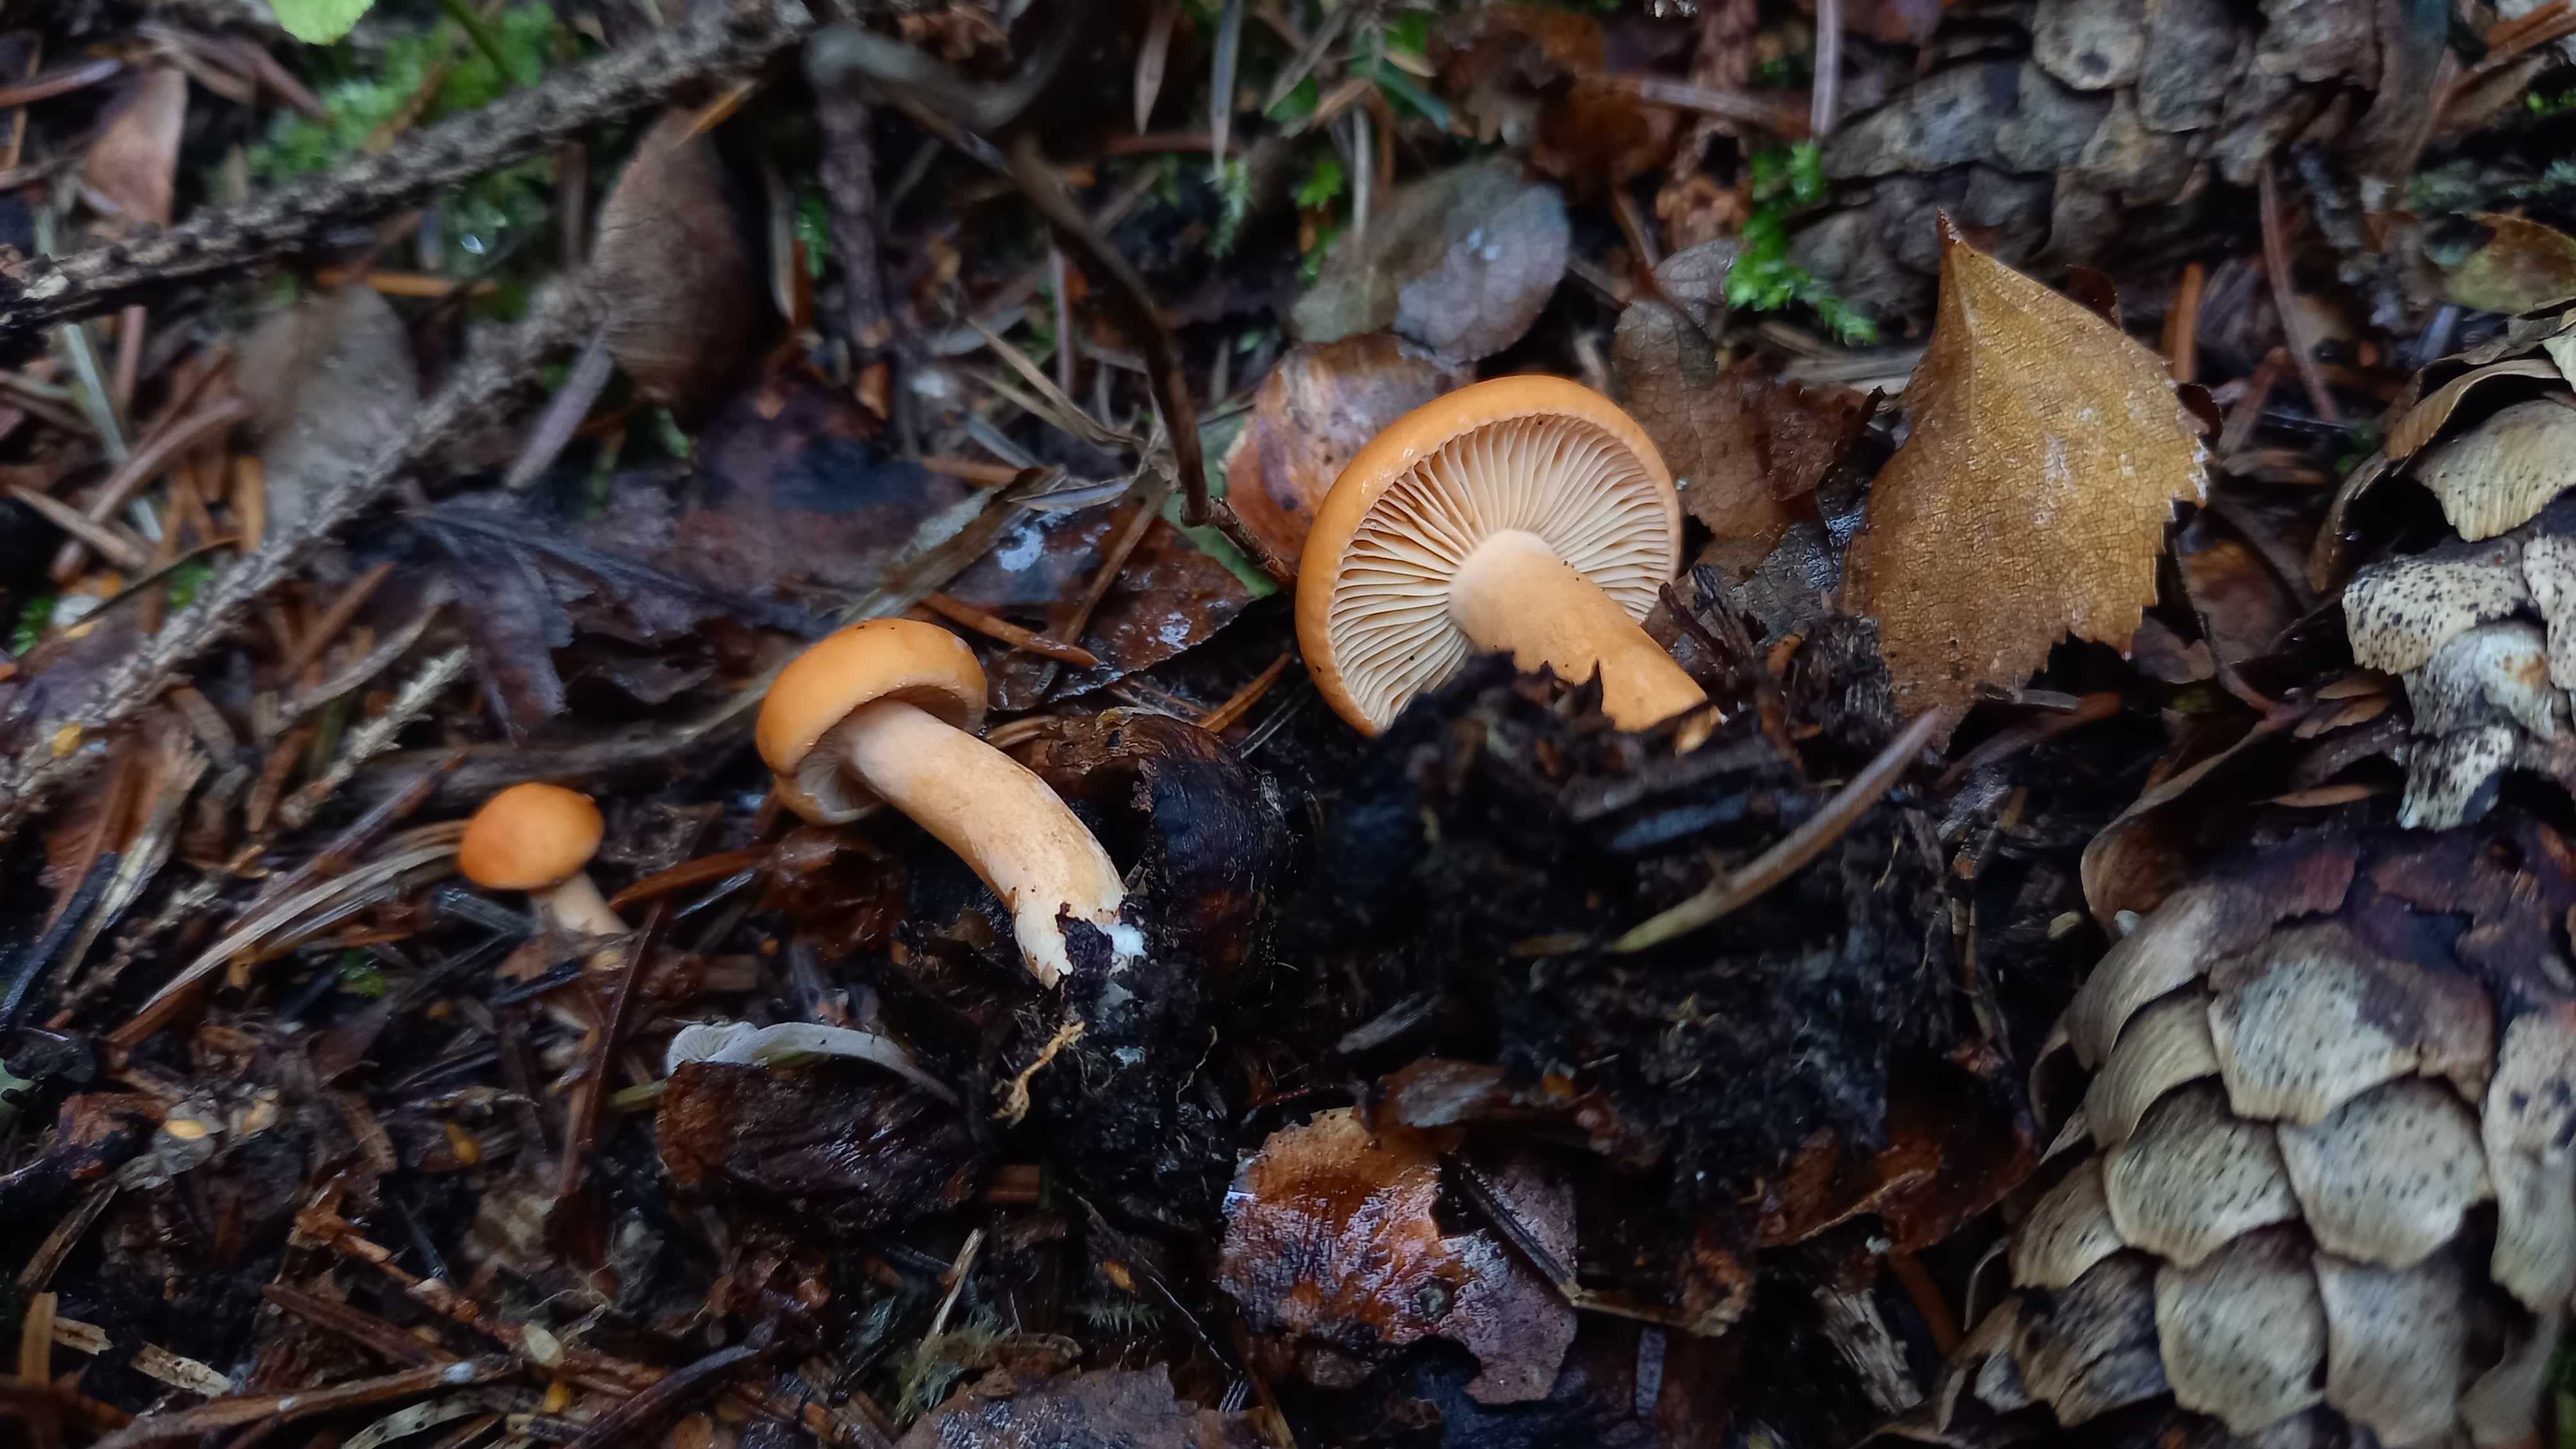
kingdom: Fungi
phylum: Basidiomycota
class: Agaricomycetes
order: Russulales
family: Russulaceae
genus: Lactarius
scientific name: Lactarius aurantiacus
